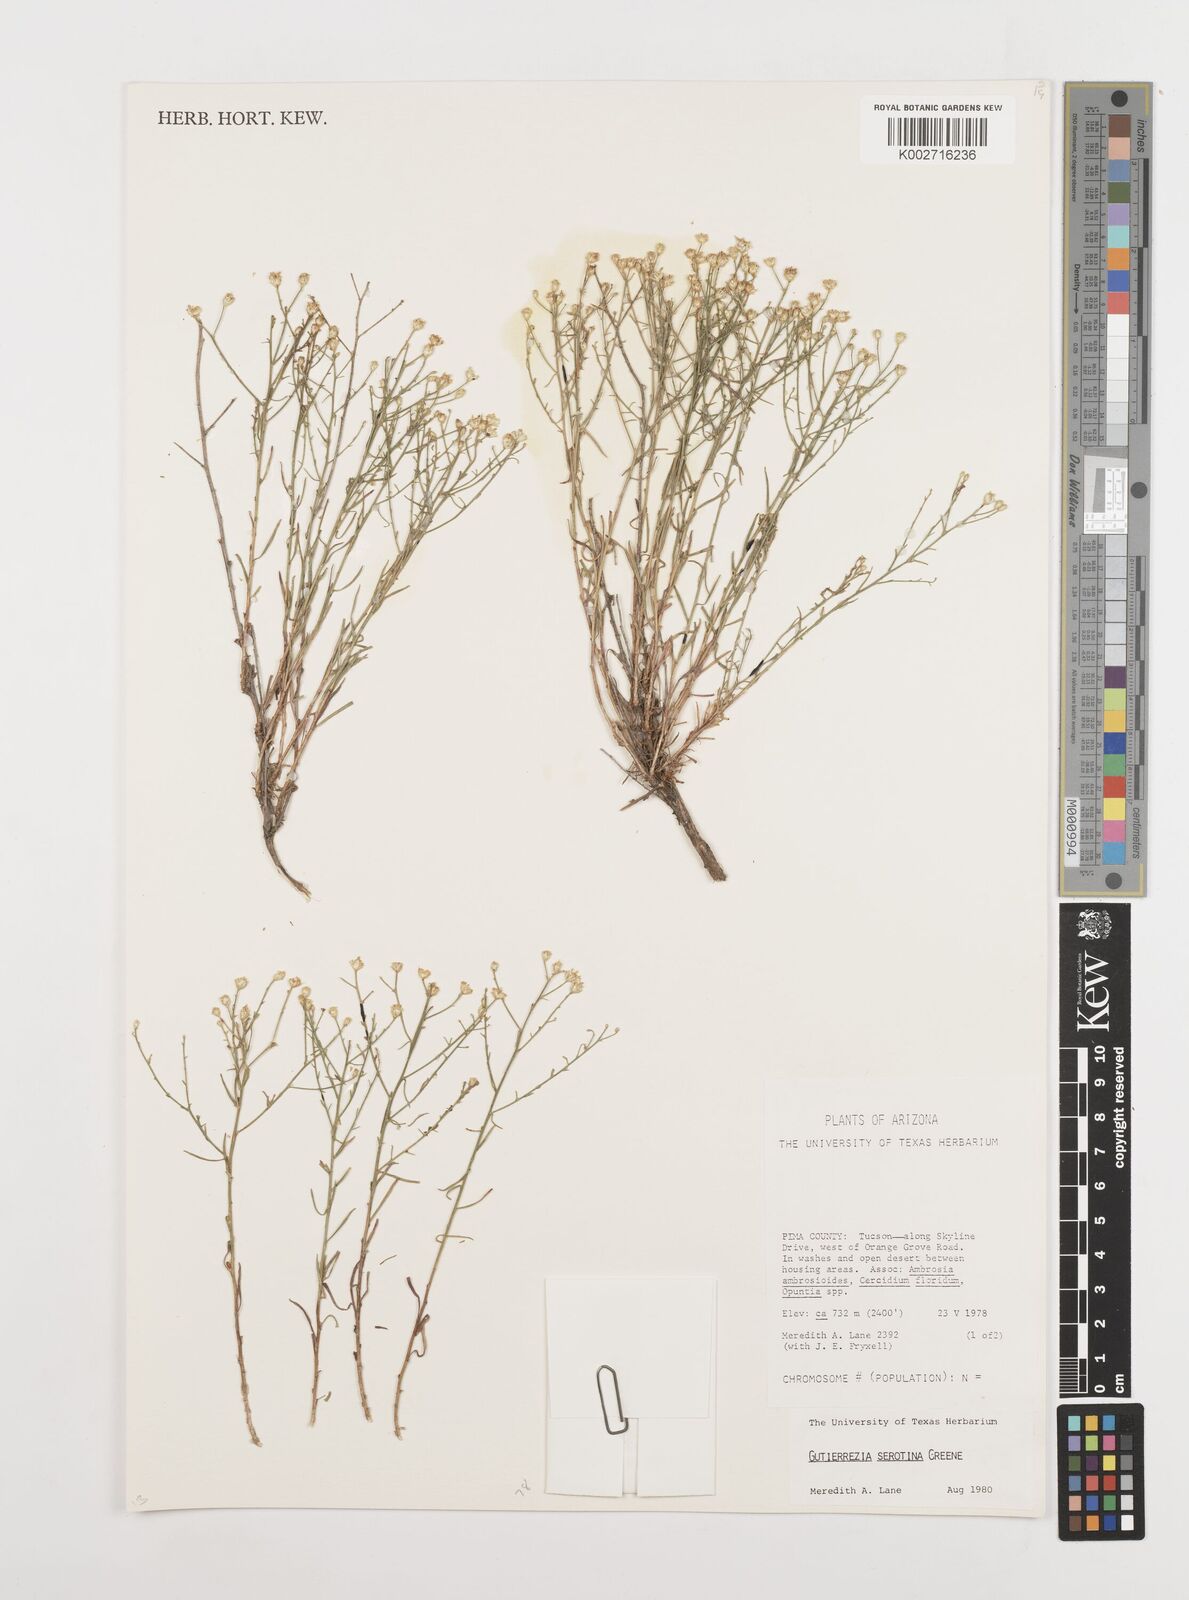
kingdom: Plantae
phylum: Tracheophyta
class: Magnoliopsida
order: Asterales
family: Asteraceae
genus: Gutierrezia
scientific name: Gutierrezia serotina
